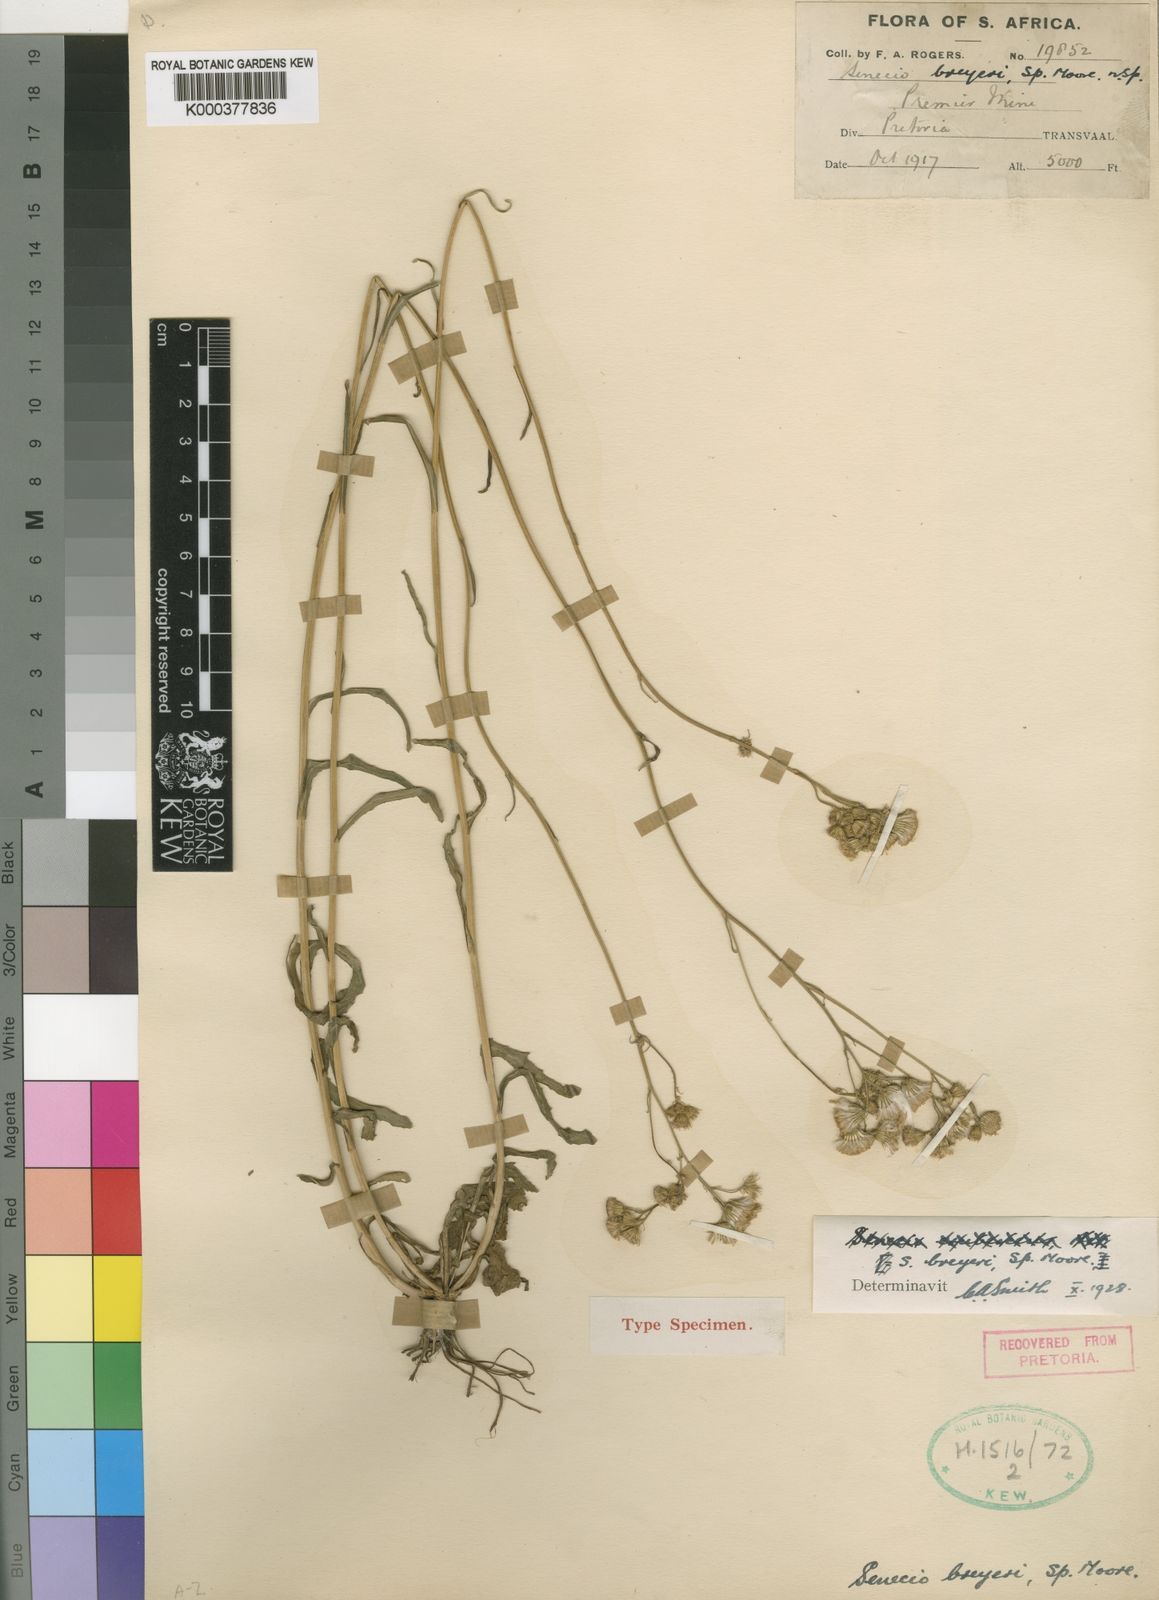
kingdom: Plantae
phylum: Tracheophyta
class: Magnoliopsida
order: Asterales
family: Asteraceae
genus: Senecio
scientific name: Senecio polyodon
